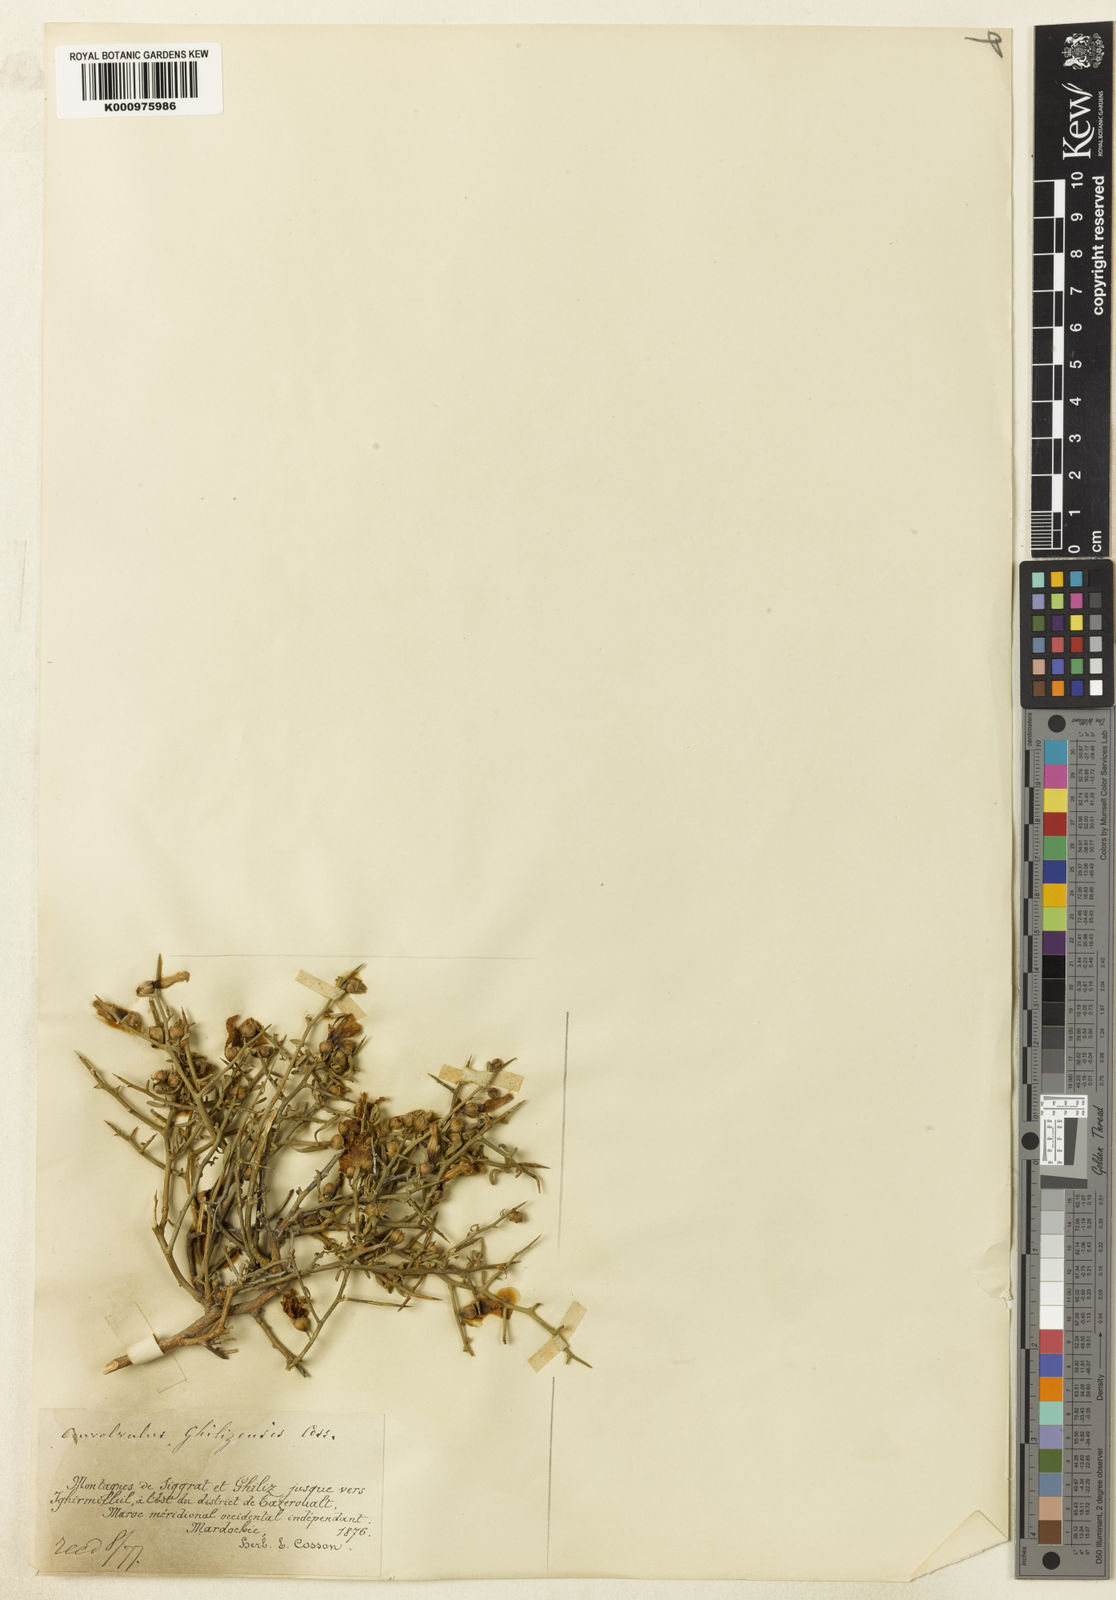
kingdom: Plantae
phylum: Tracheophyta
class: Magnoliopsida
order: Solanales
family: Convolvulaceae
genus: Convolvulus
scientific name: Convolvulus
